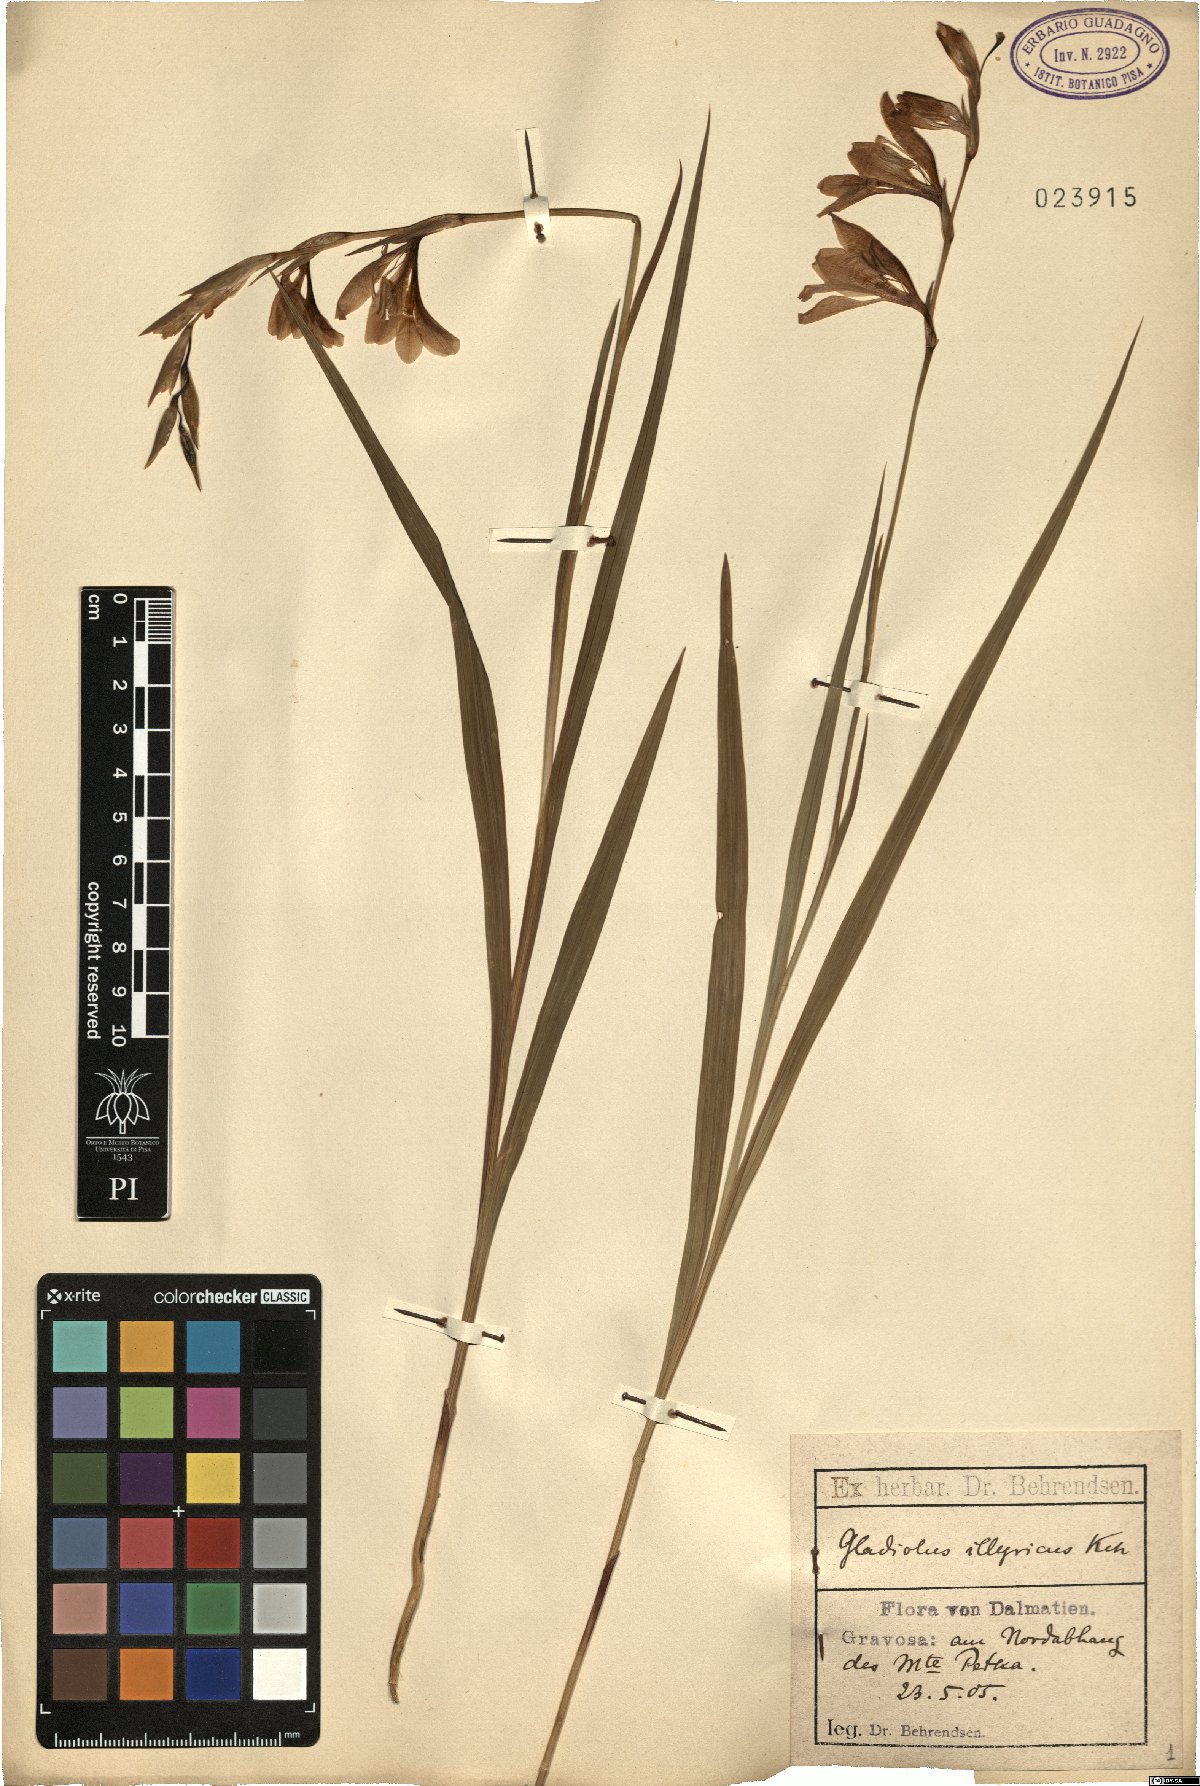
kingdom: Plantae
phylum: Tracheophyta
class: Liliopsida
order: Asparagales
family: Iridaceae
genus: Gladiolus
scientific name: Gladiolus illyricus
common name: Wild gladiolus
